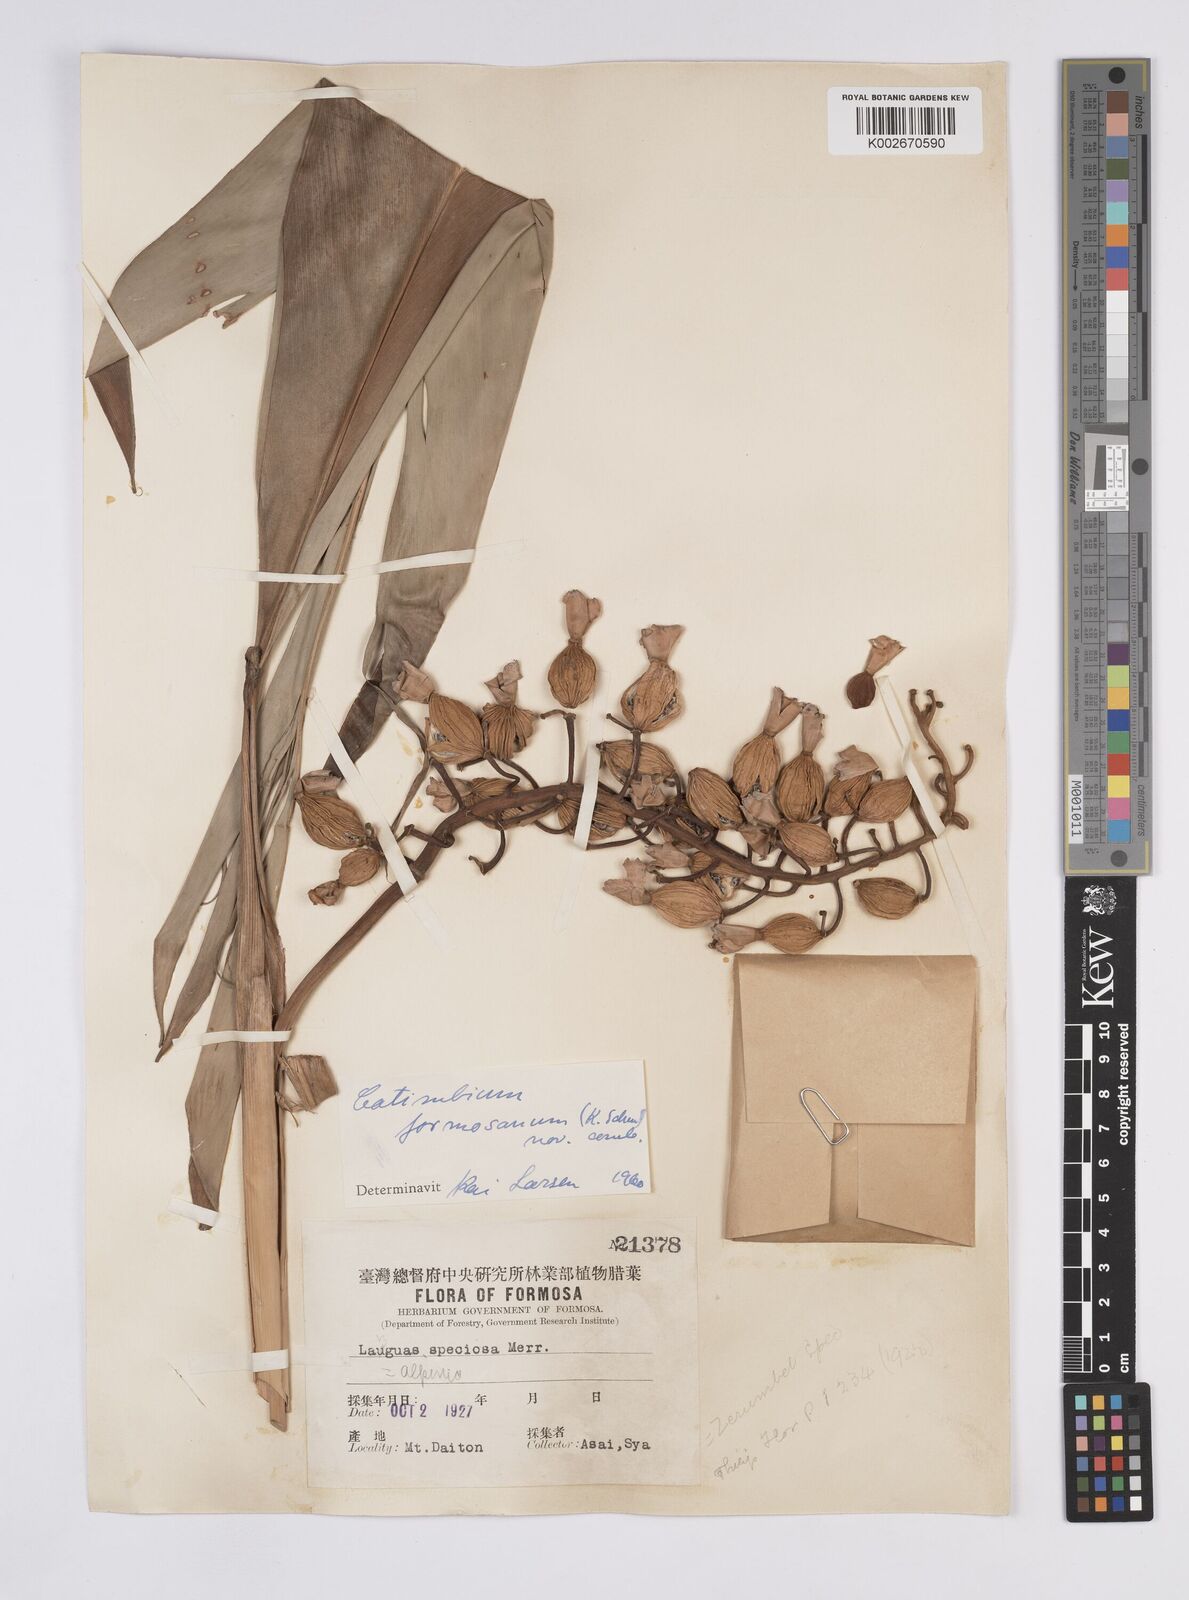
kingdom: Plantae
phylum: Tracheophyta
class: Liliopsida
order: Zingiberales
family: Zingiberaceae
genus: Alpinia
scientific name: Alpinia formosana
